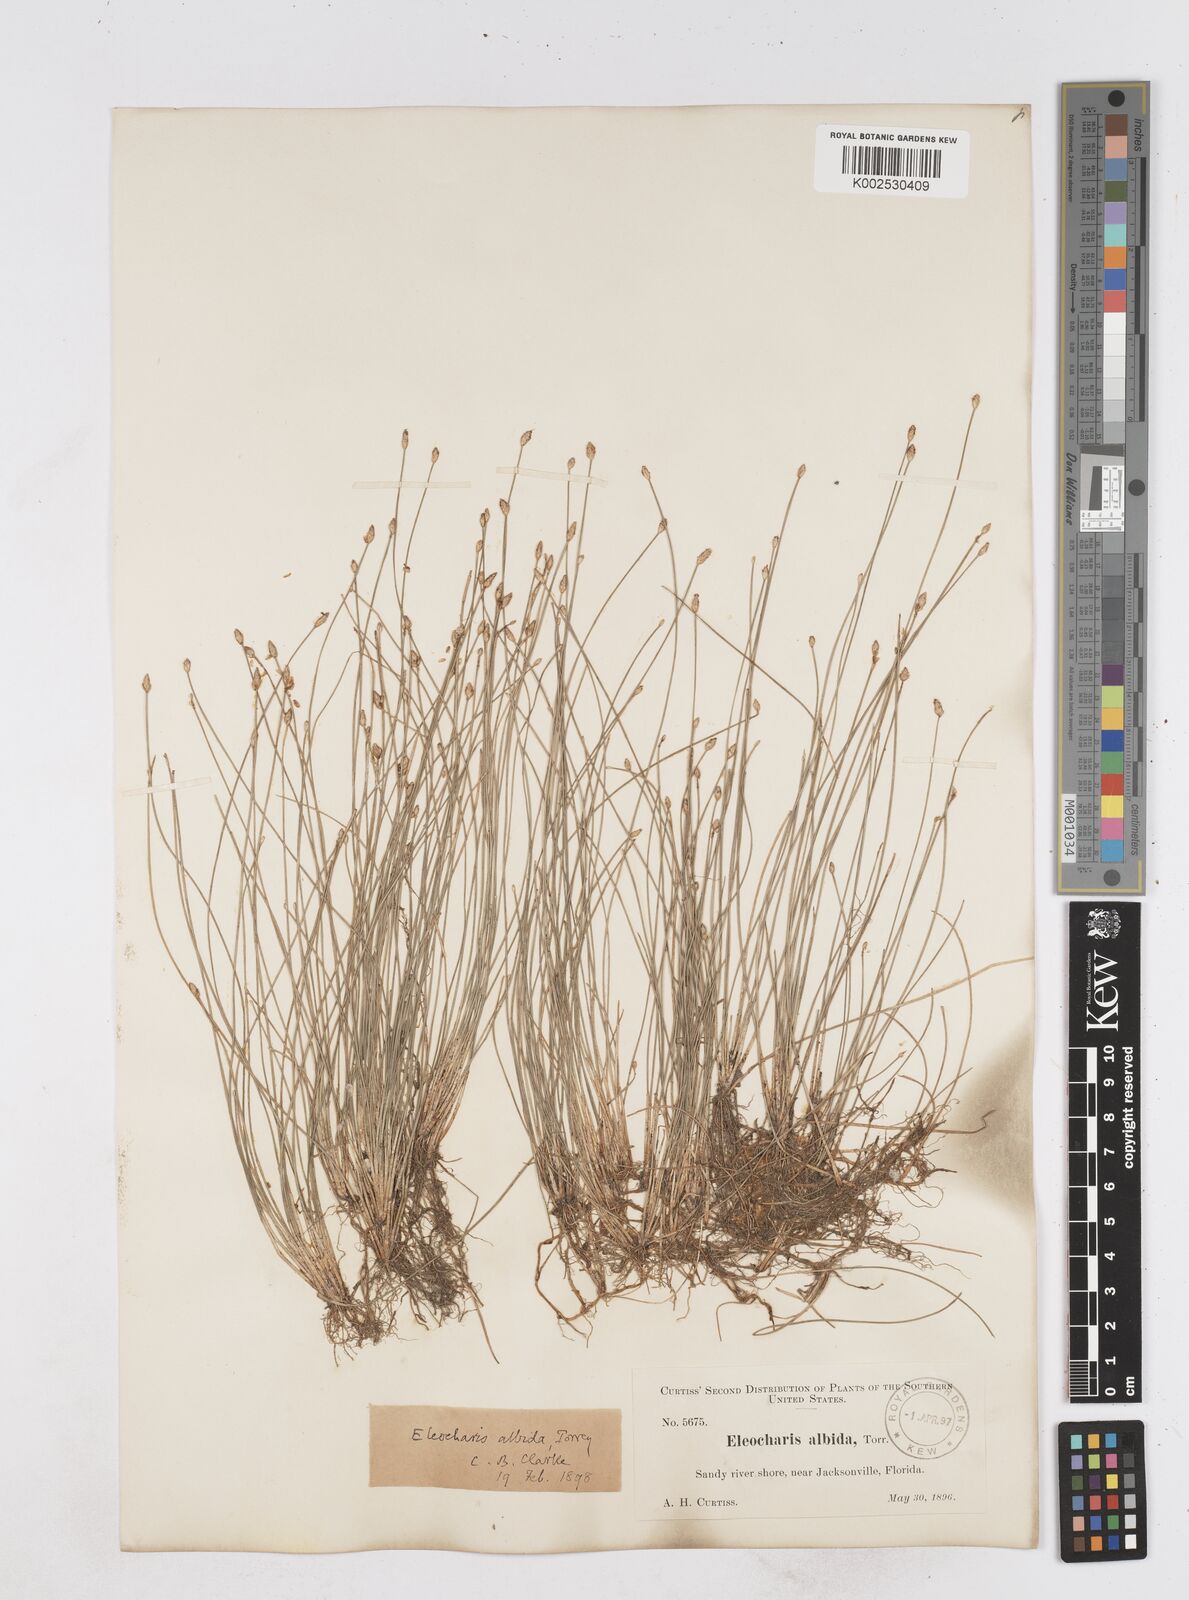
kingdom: Plantae
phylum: Tracheophyta
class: Liliopsida
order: Poales
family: Cyperaceae
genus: Eleocharis
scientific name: Eleocharis albida
